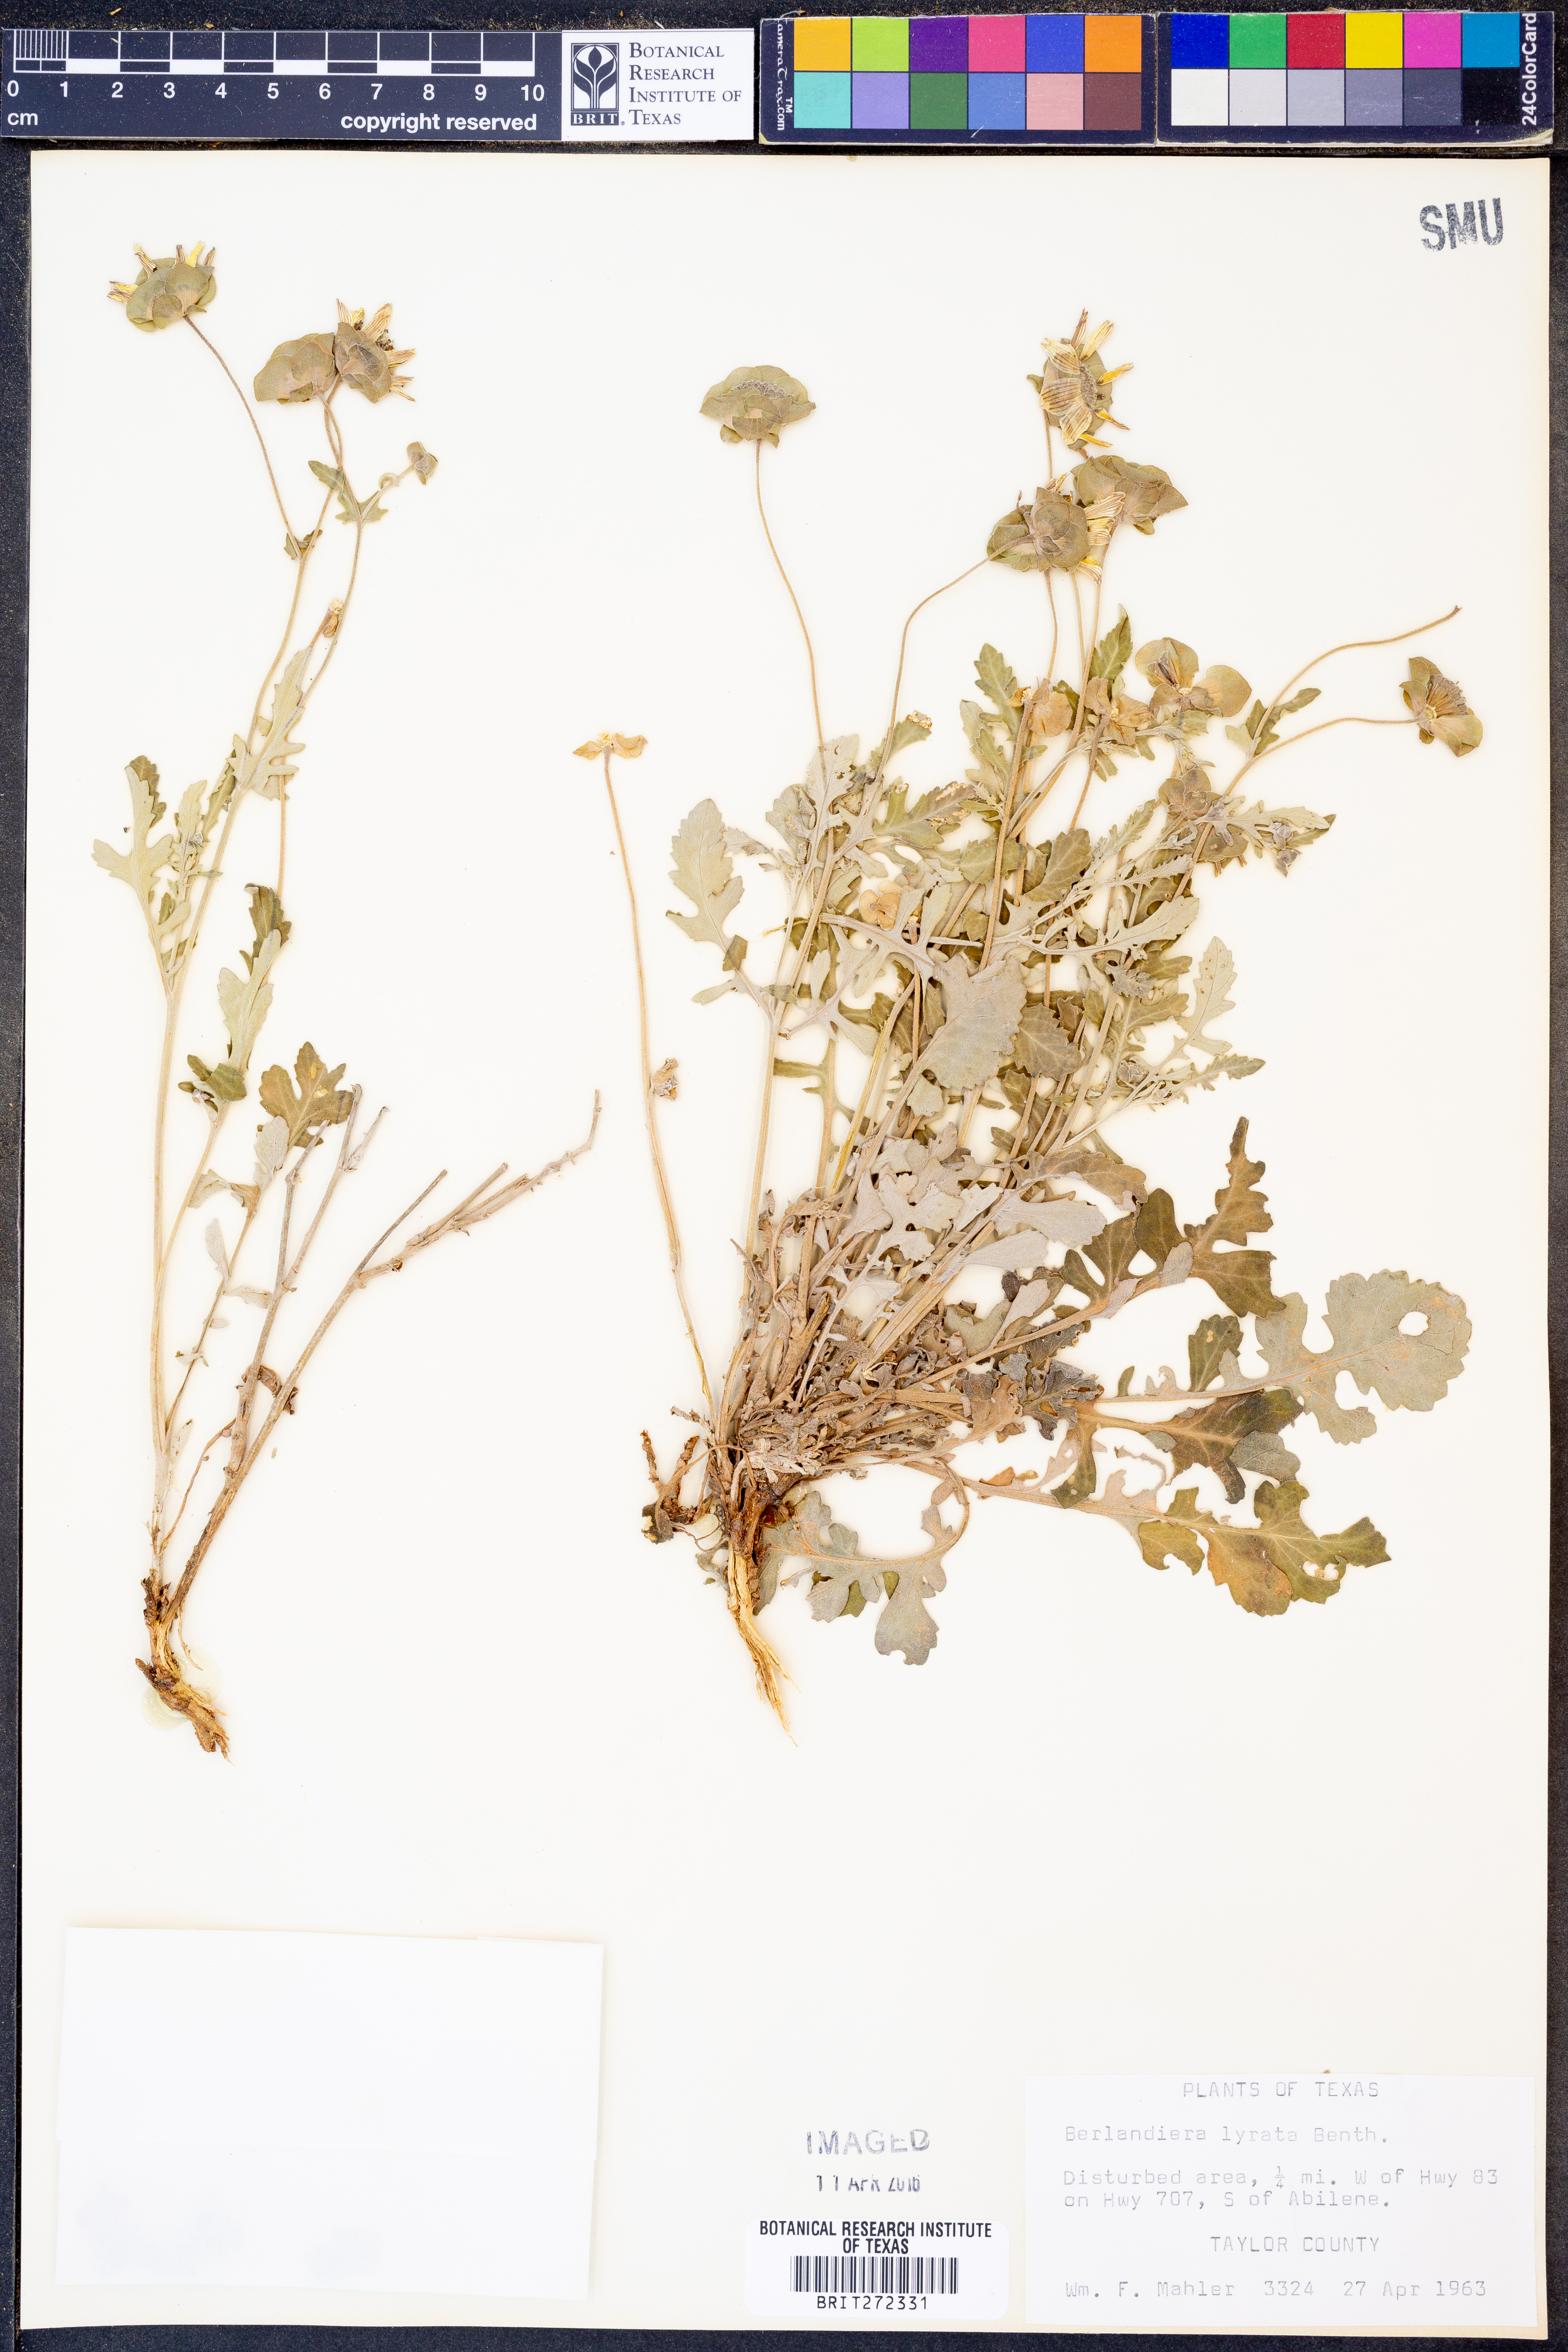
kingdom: Plantae
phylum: Tracheophyta
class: Magnoliopsida
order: Asterales
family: Asteraceae
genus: Berlandiera
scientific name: Berlandiera lyrata
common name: Chocolate-flower
